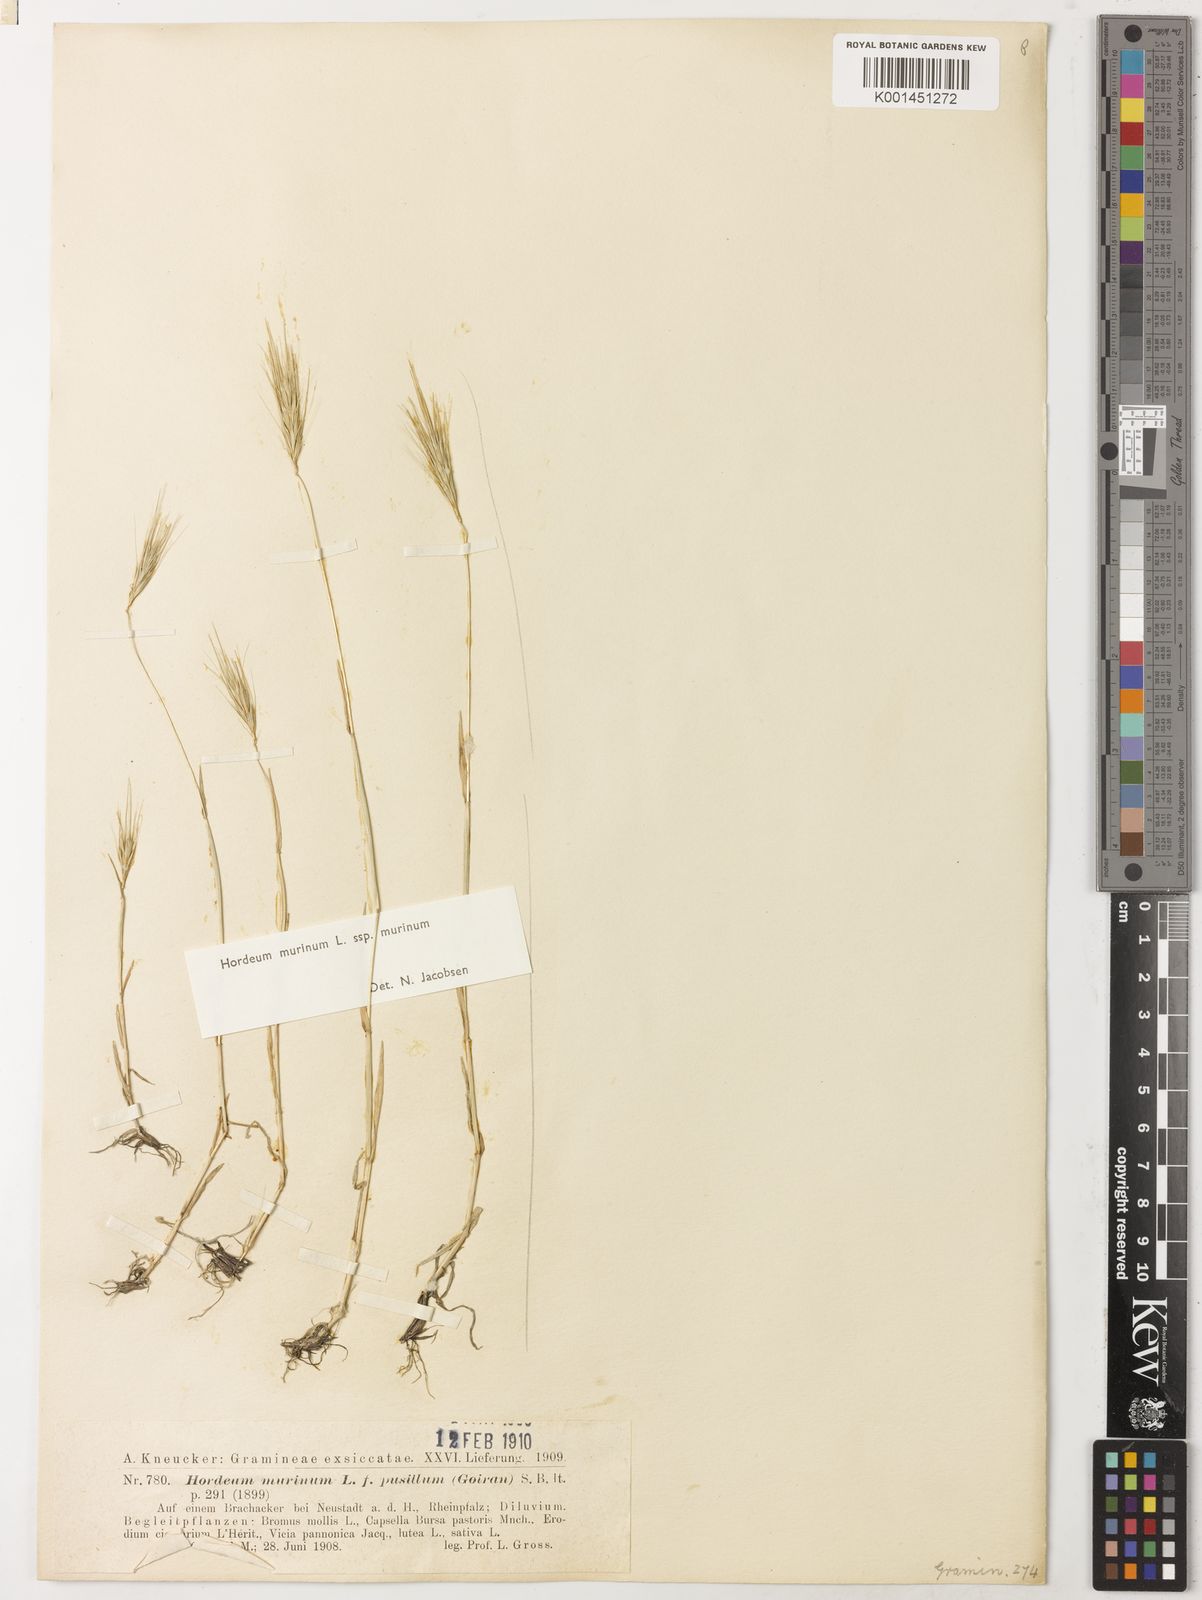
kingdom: Plantae
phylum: Tracheophyta
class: Liliopsida
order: Poales
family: Poaceae
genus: Hordeum
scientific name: Hordeum murinum
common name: Wall barley
